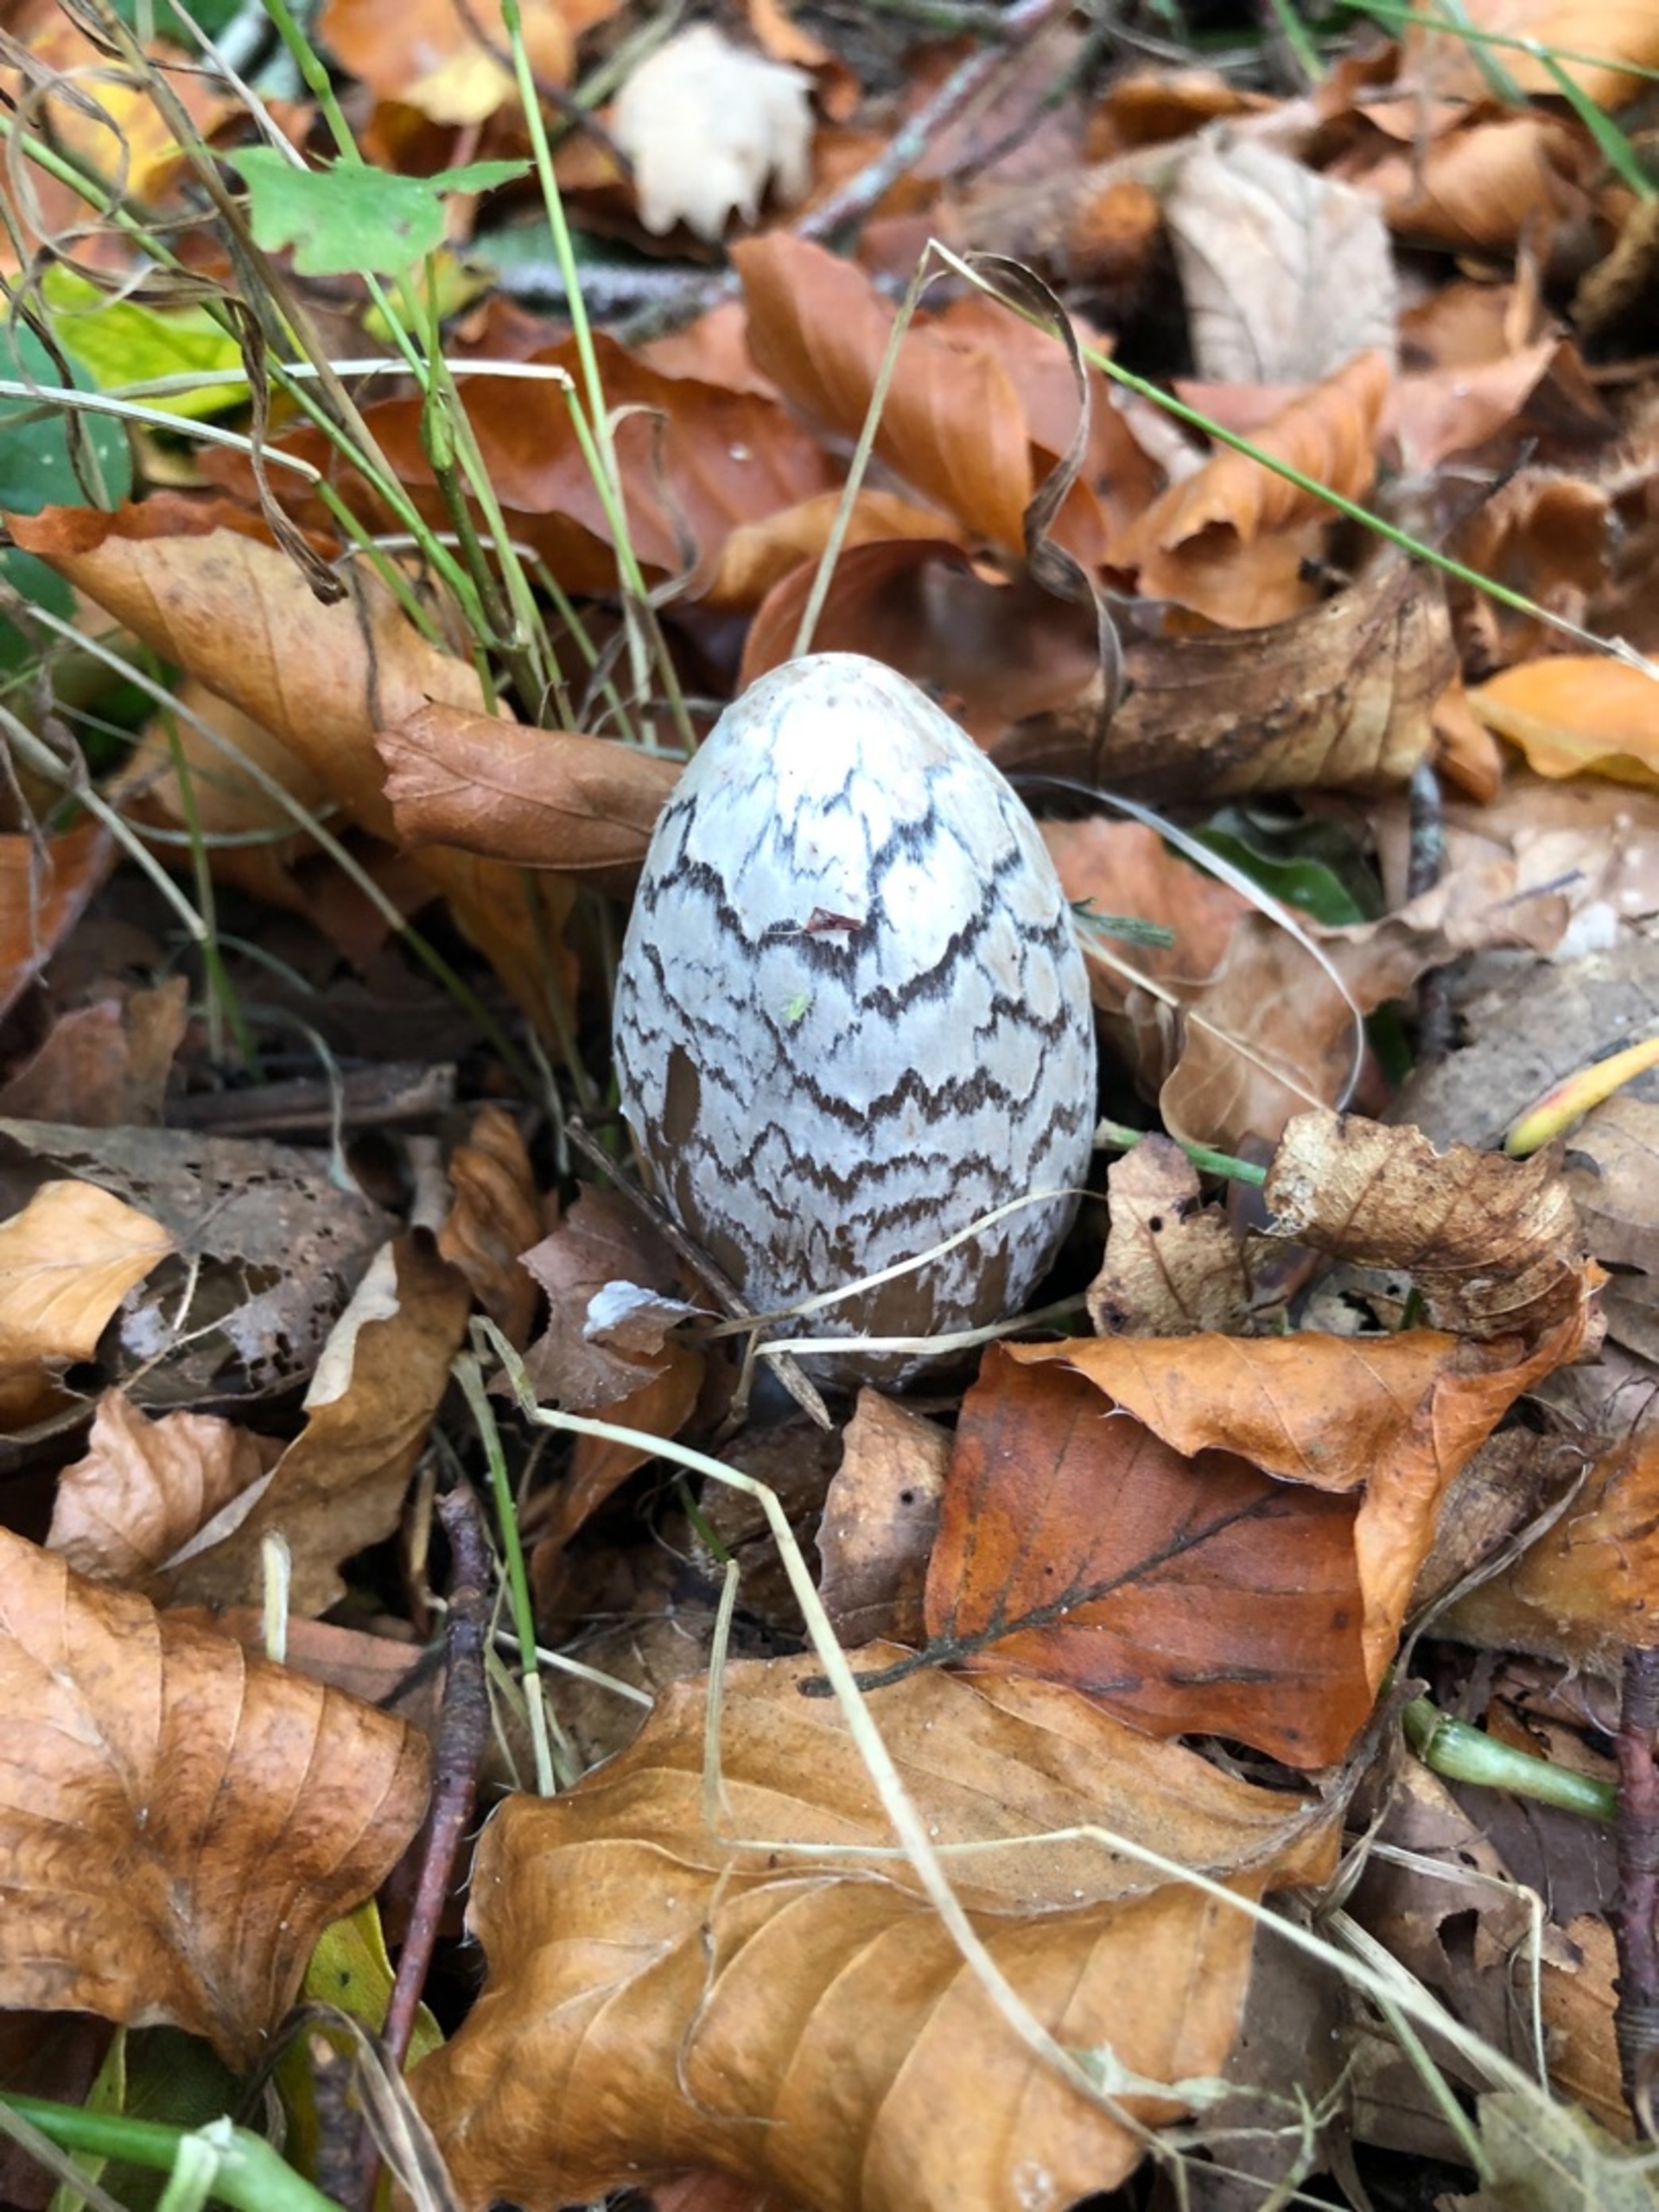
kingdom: Fungi
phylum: Basidiomycota
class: Agaricomycetes
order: Agaricales
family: Psathyrellaceae
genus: Coprinopsis
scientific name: Coprinopsis picacea
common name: Skade-blækhat
